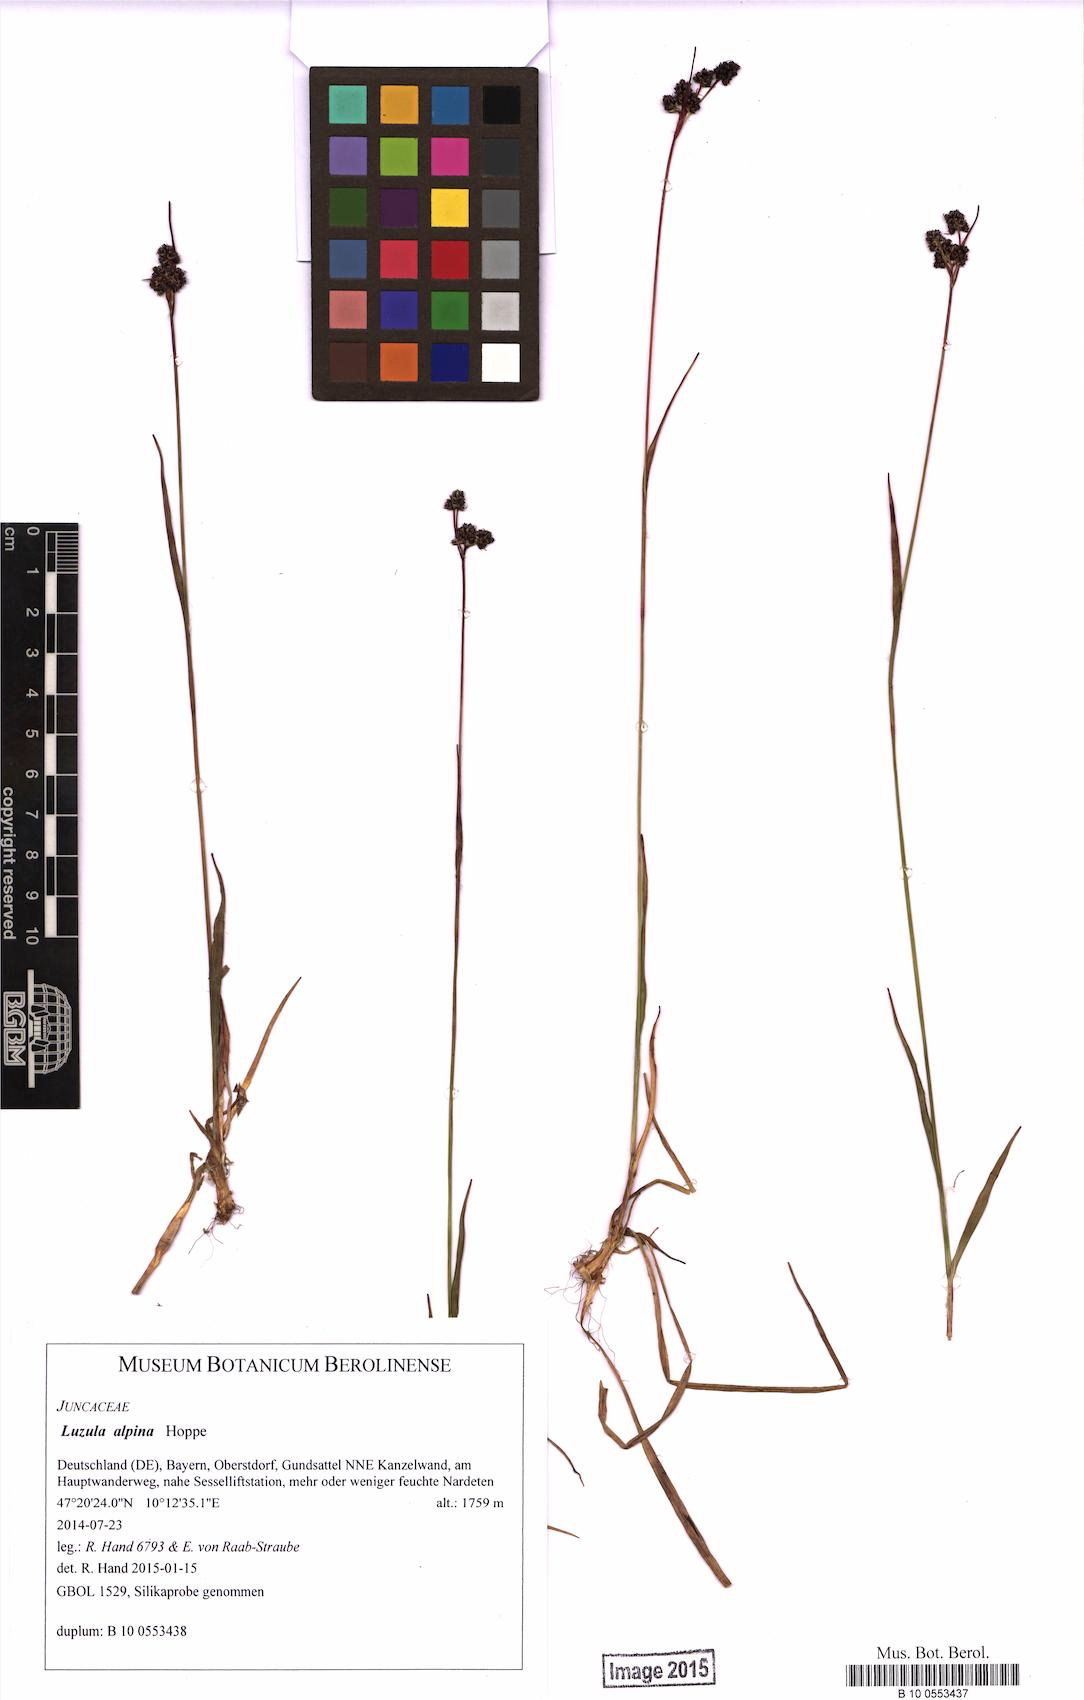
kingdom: Plantae
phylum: Tracheophyta
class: Liliopsida
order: Poales
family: Juncaceae
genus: Luzula
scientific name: Luzula alpina
